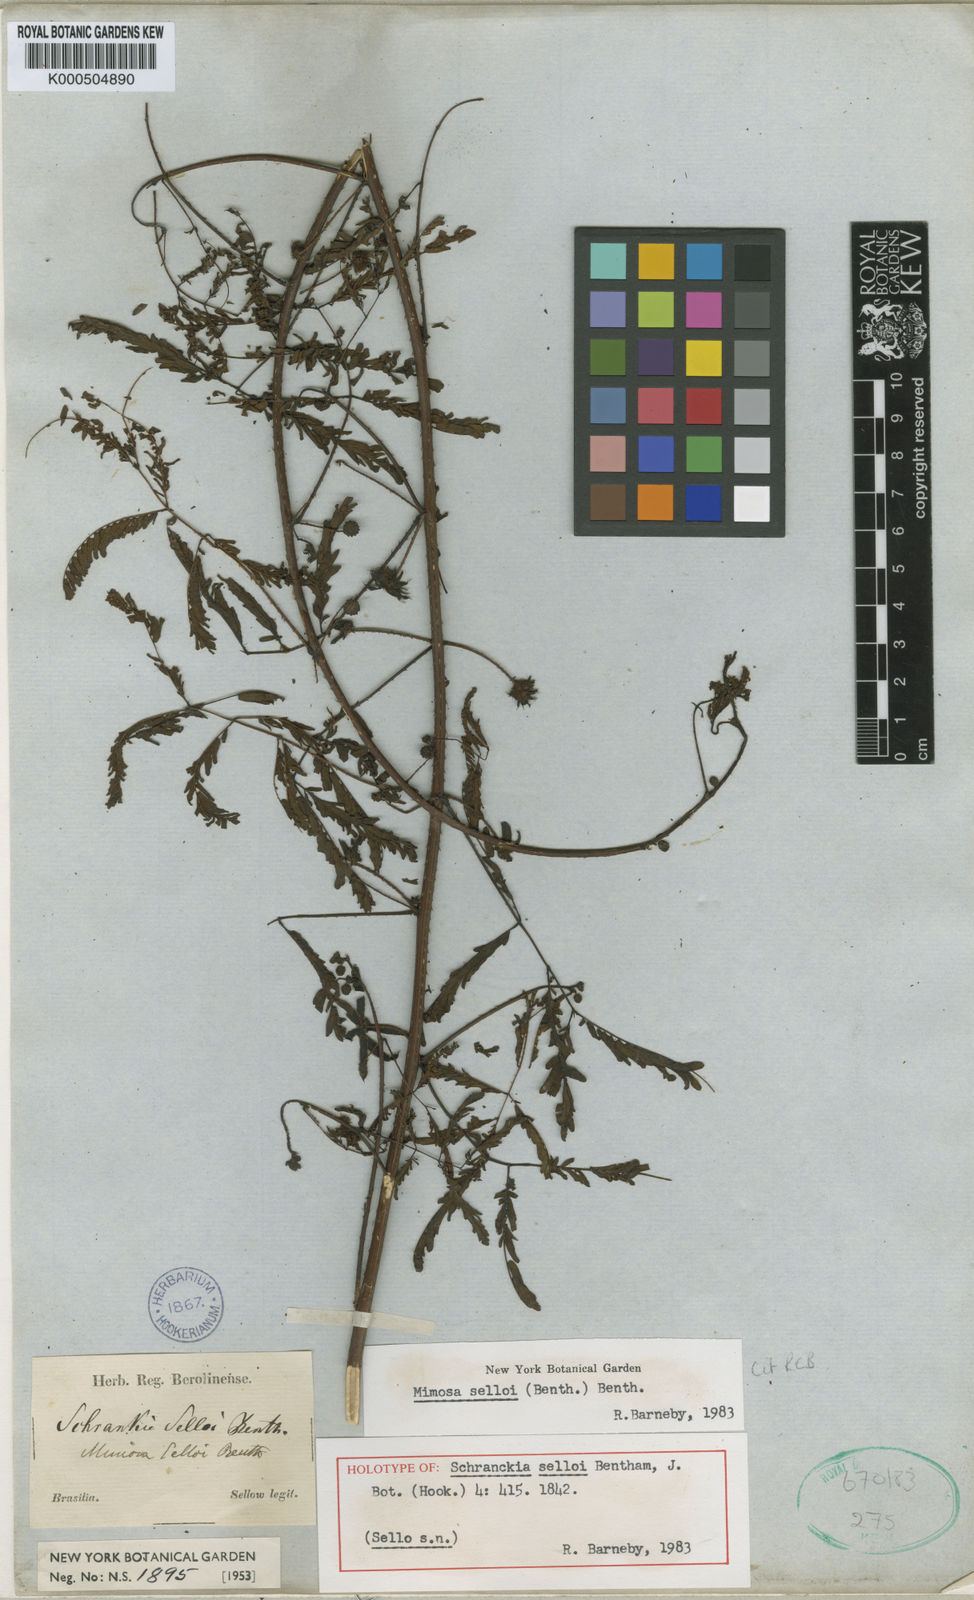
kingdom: Plantae
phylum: Tracheophyta
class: Magnoliopsida
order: Fabales
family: Fabaceae
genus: Mimosa
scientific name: Mimosa selloi
